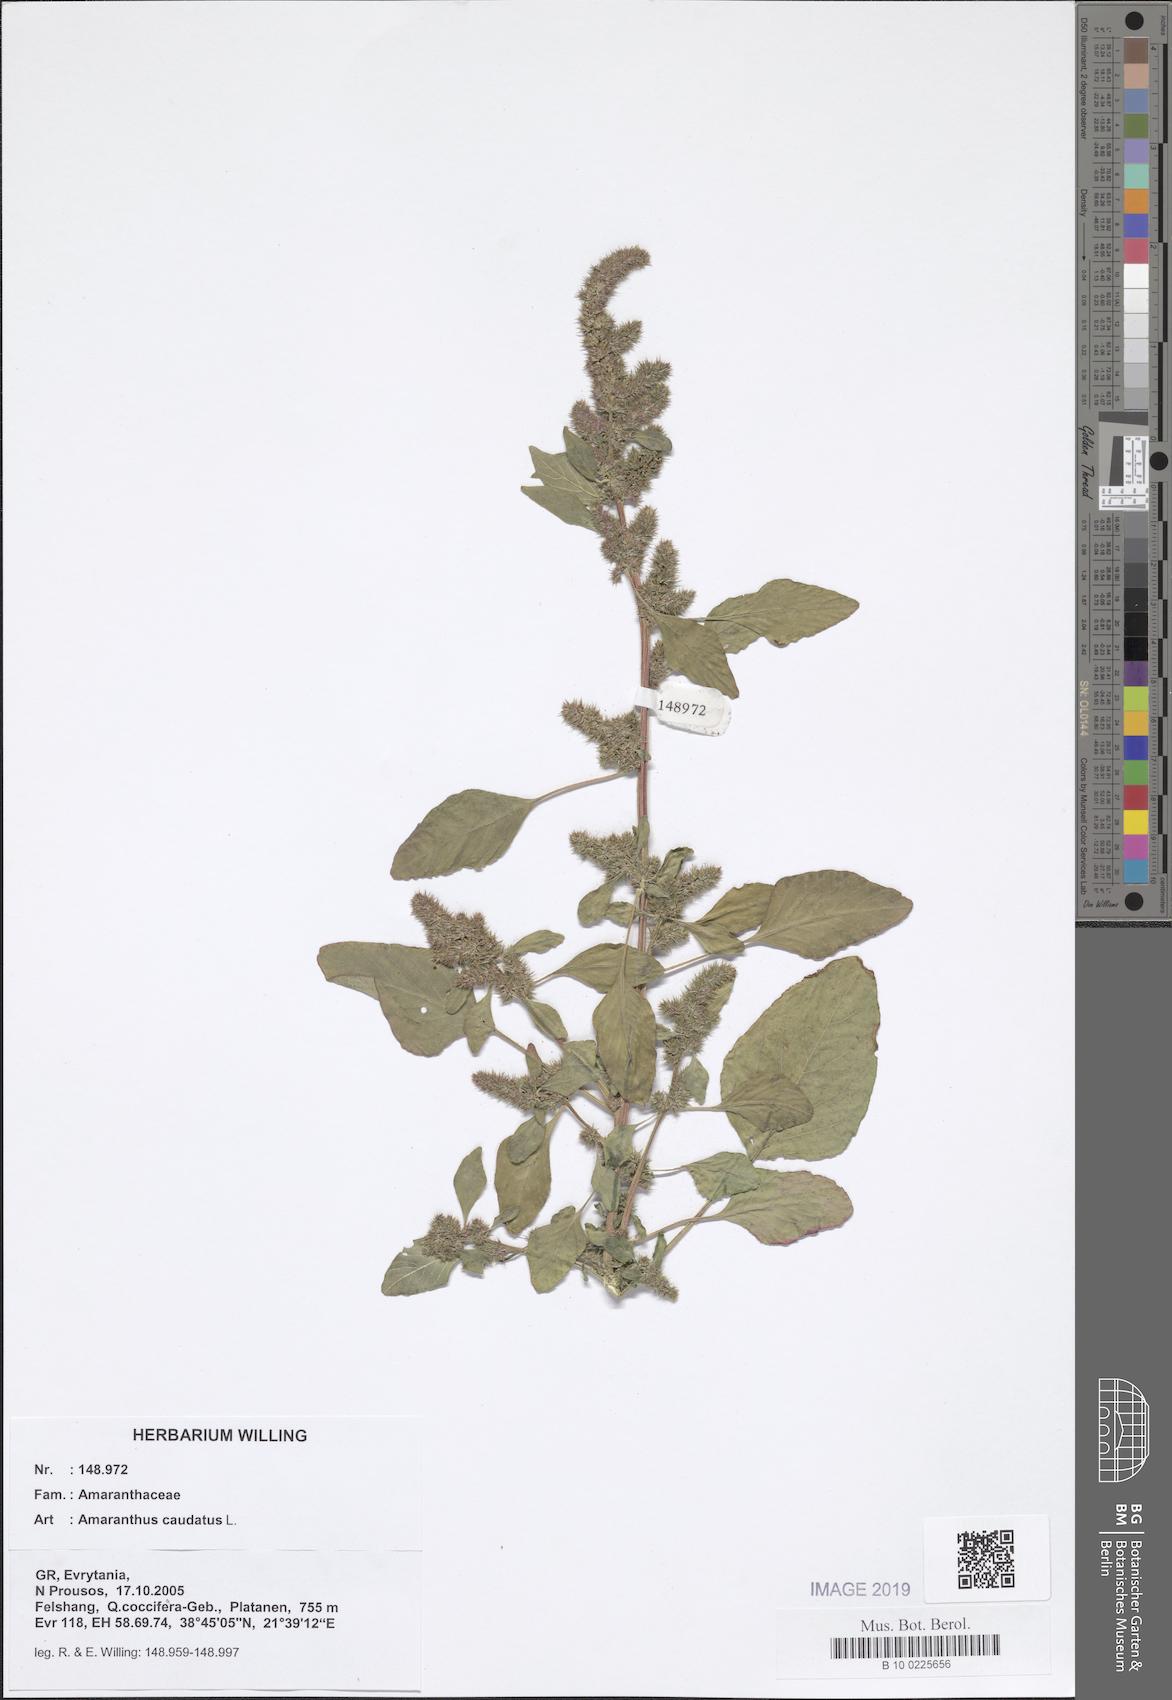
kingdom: Plantae
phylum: Tracheophyta
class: Magnoliopsida
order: Caryophyllales
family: Amaranthaceae
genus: Amaranthus
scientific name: Amaranthus caudatus
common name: Love-lies-bleeding
